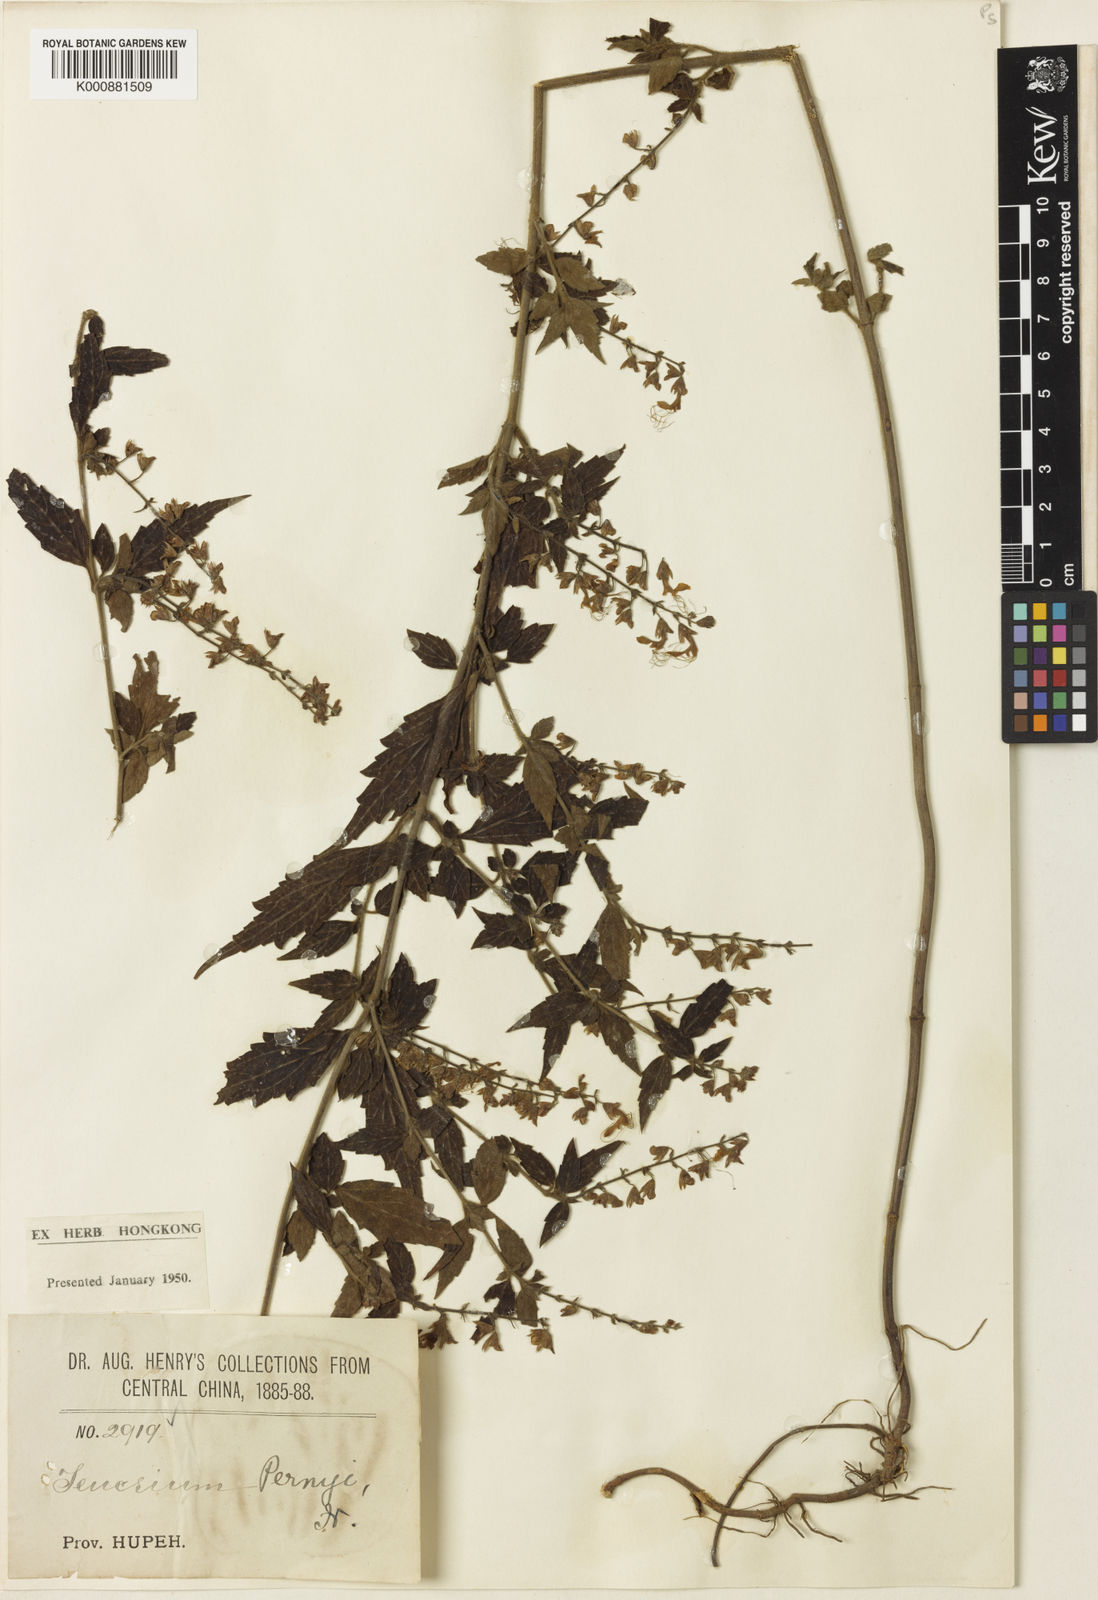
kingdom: Plantae
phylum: Tracheophyta
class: Magnoliopsida
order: Lamiales
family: Lamiaceae
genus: Teucrium
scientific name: Teucrium alborubrum
